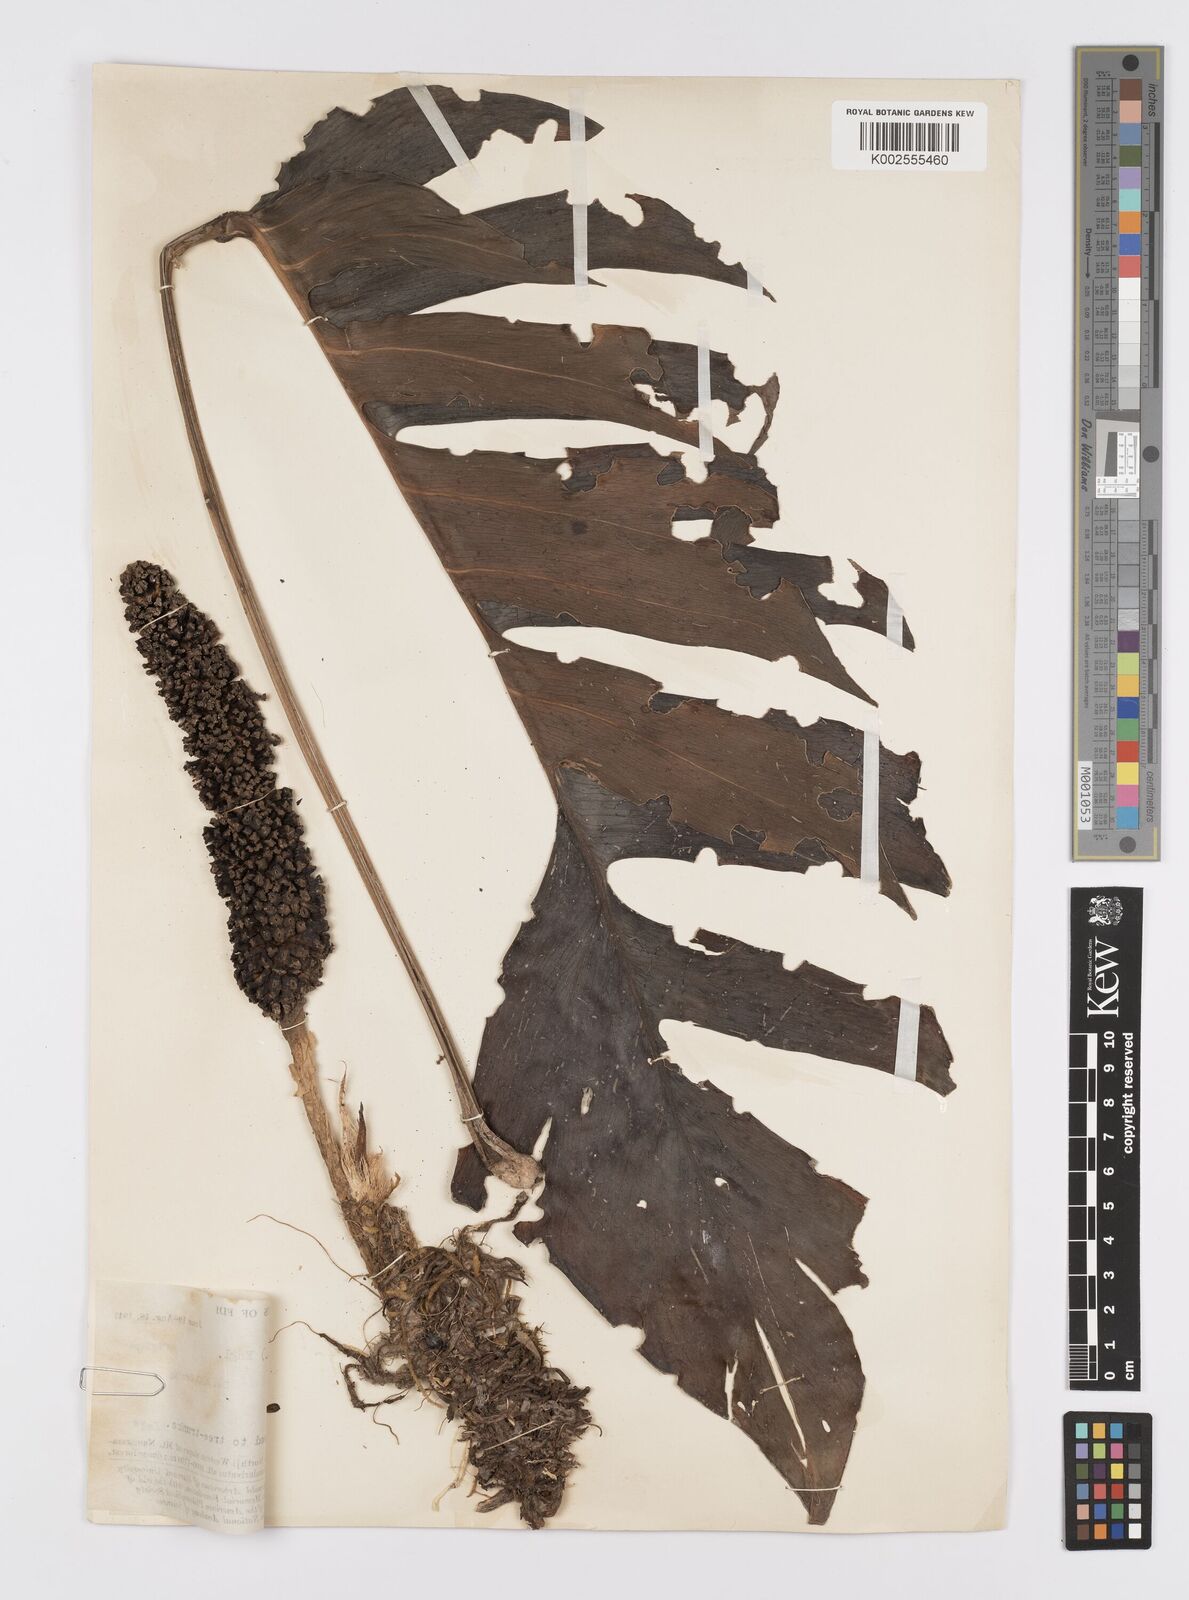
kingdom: Plantae
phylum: Tracheophyta
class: Liliopsida
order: Alismatales
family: Araceae
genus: Epipremnum
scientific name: Epipremnum pinnatum
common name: Centipede tongavine
